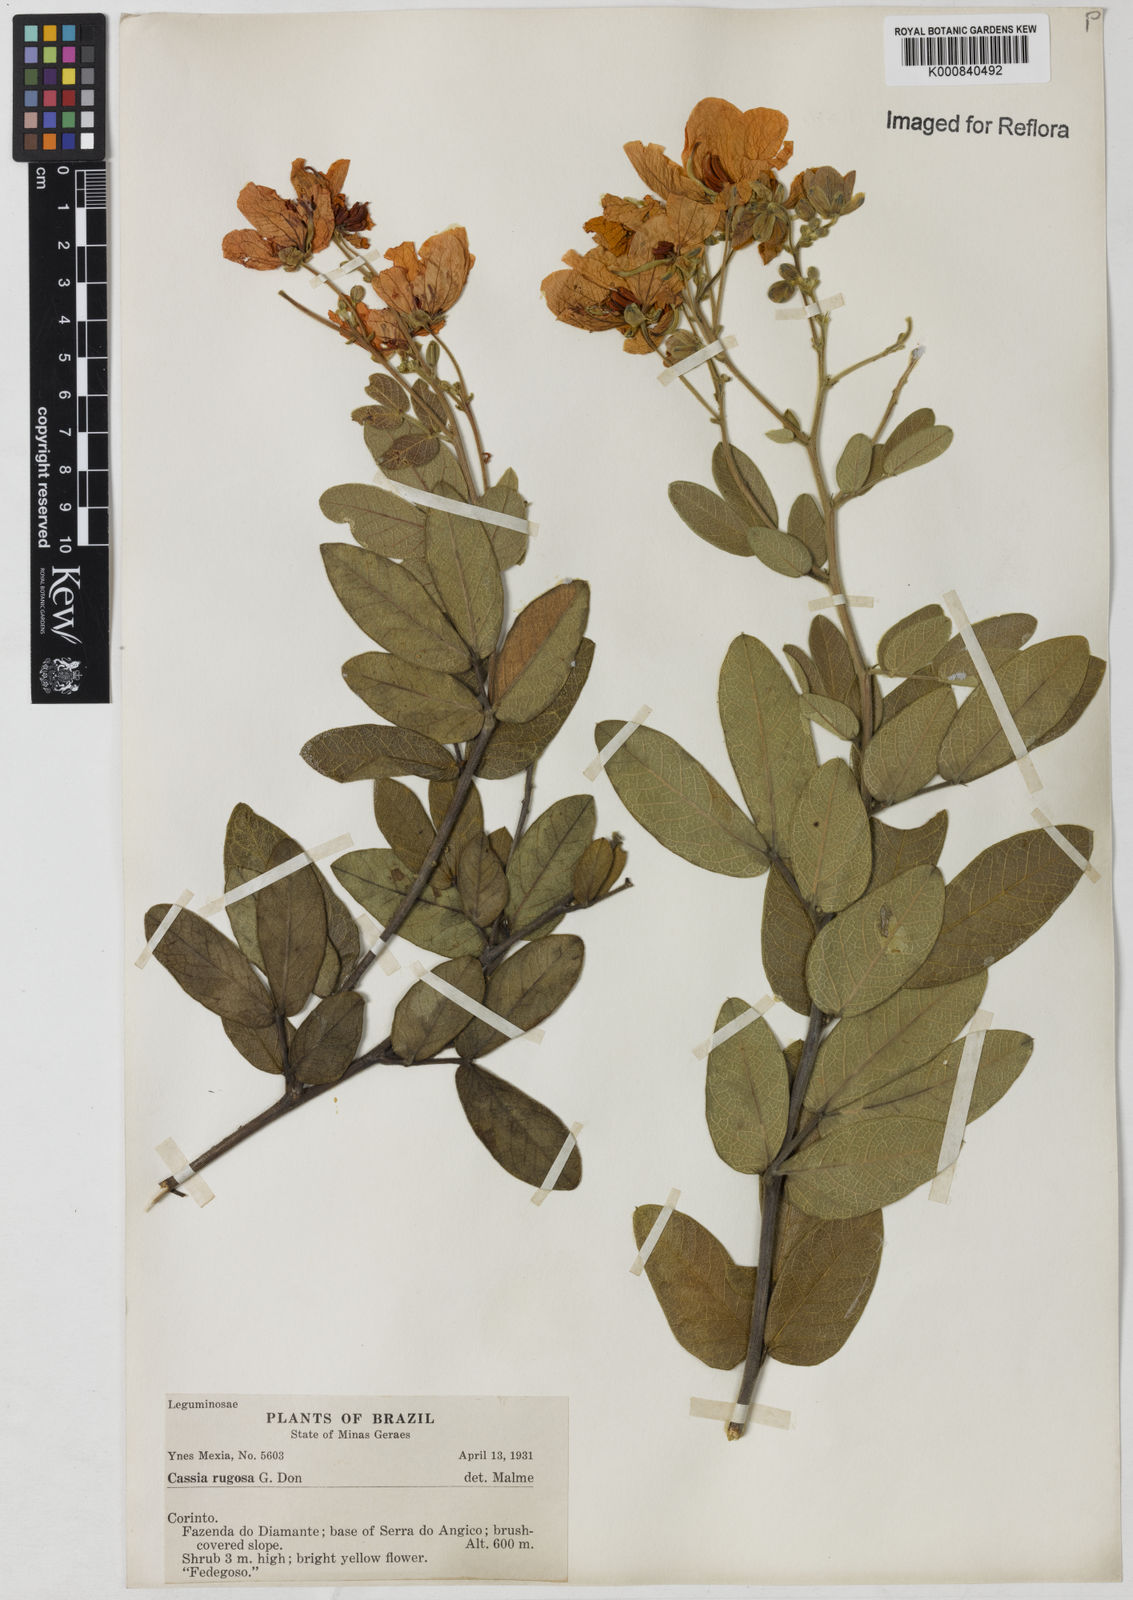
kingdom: Plantae
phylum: Tracheophyta
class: Magnoliopsida
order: Fabales
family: Fabaceae
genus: Senna
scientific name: Senna rugosa
